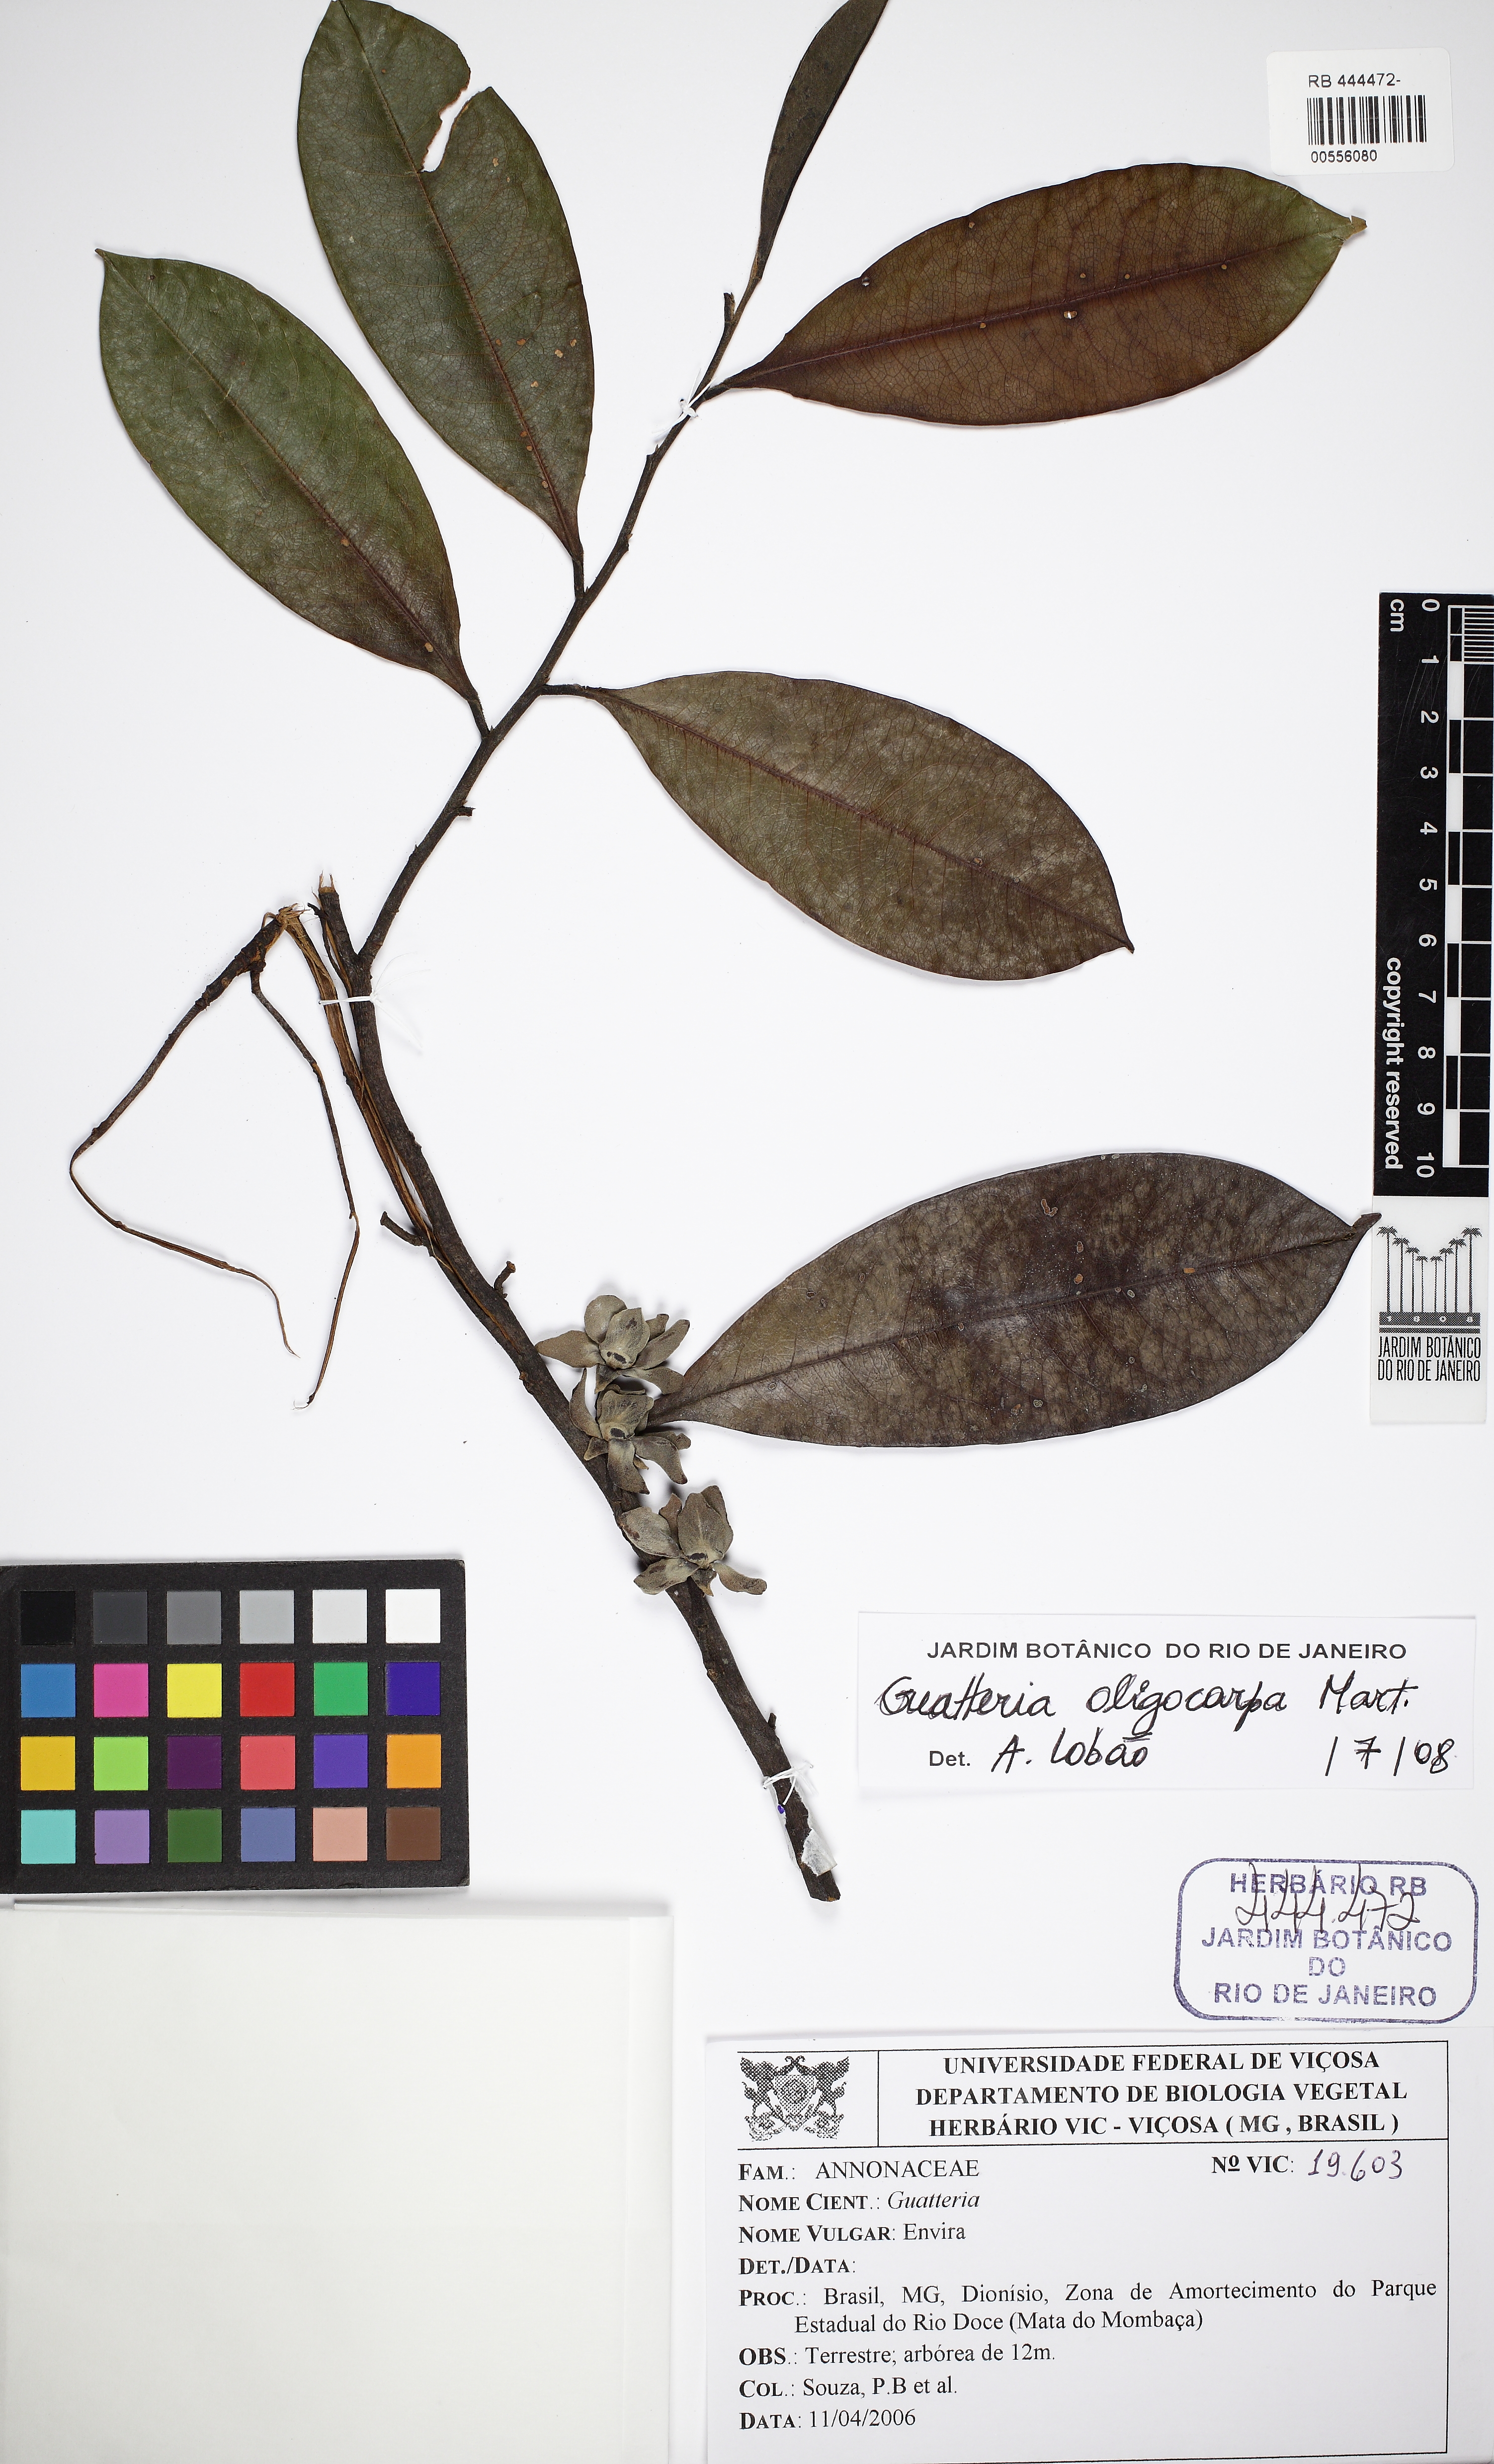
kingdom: Plantae
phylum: Tracheophyta
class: Magnoliopsida
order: Magnoliales
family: Annonaceae
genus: Guatteria
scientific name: Guatteria oligocarpa
